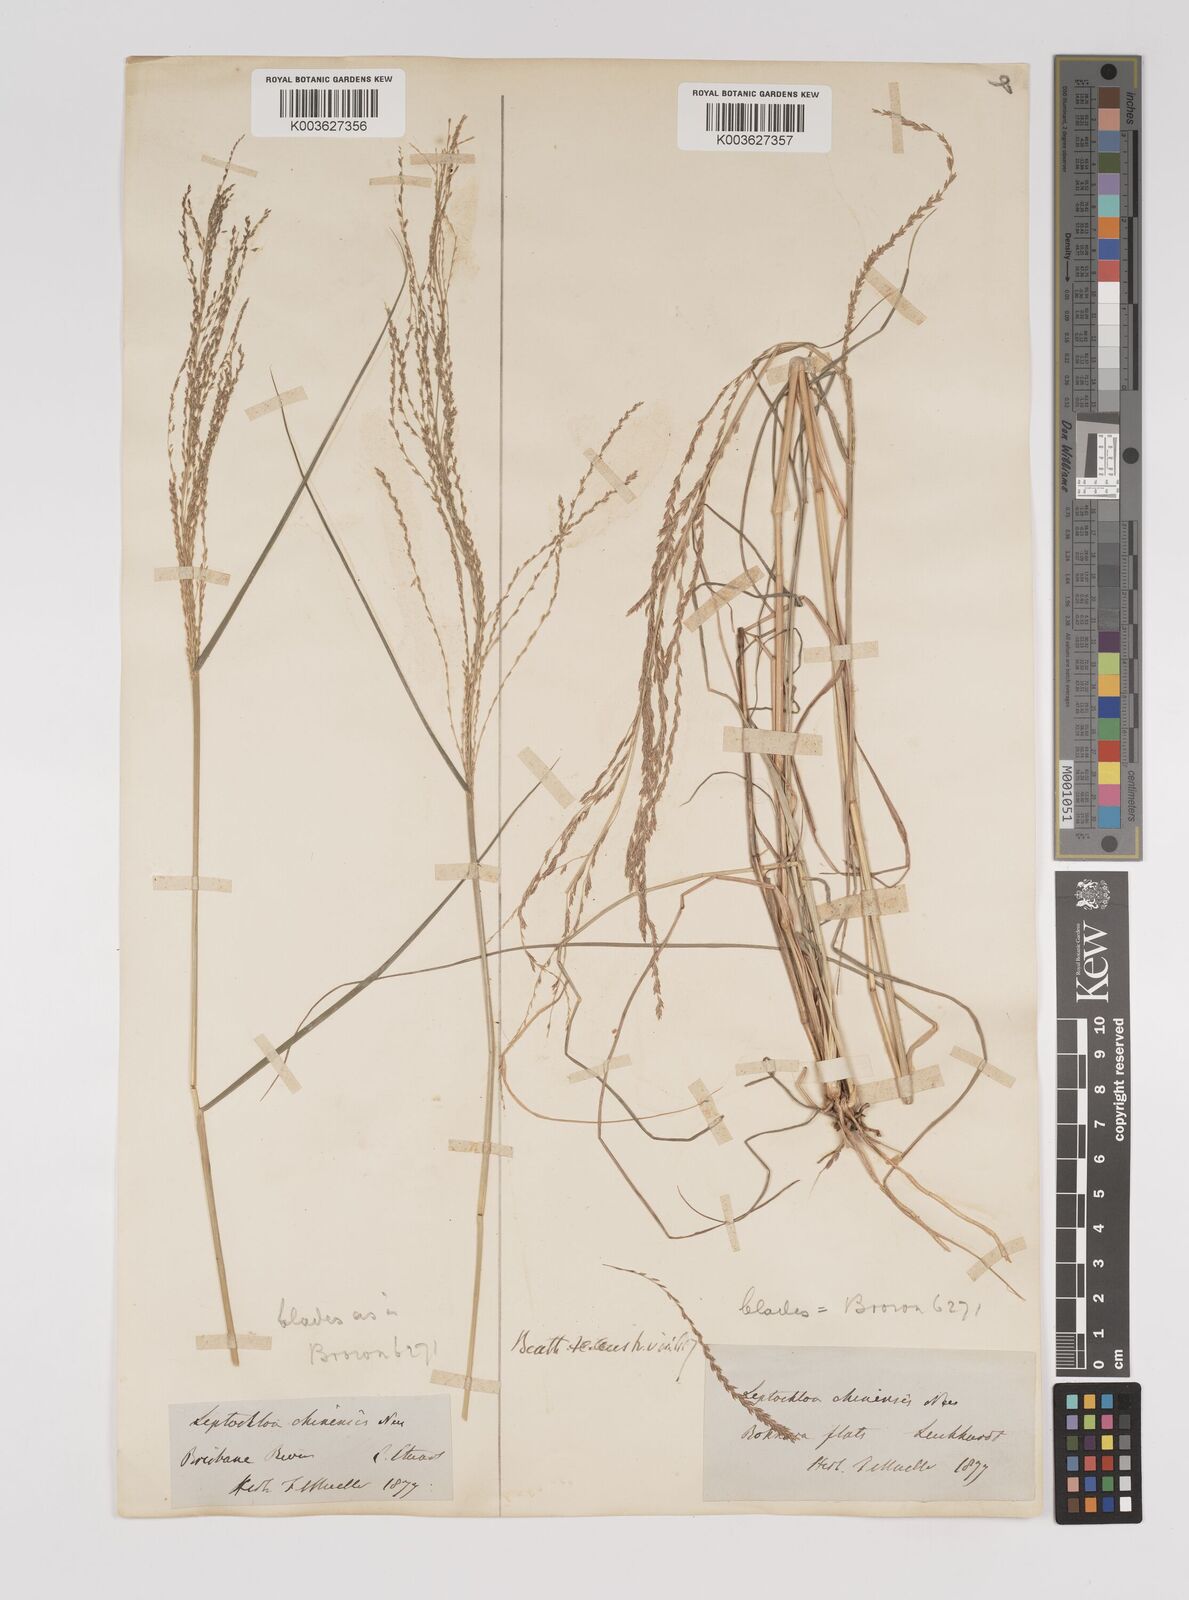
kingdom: Plantae
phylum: Tracheophyta
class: Liliopsida
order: Poales
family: Poaceae
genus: Leptochloa
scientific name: Leptochloa decipiens
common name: Australian sprangletop
